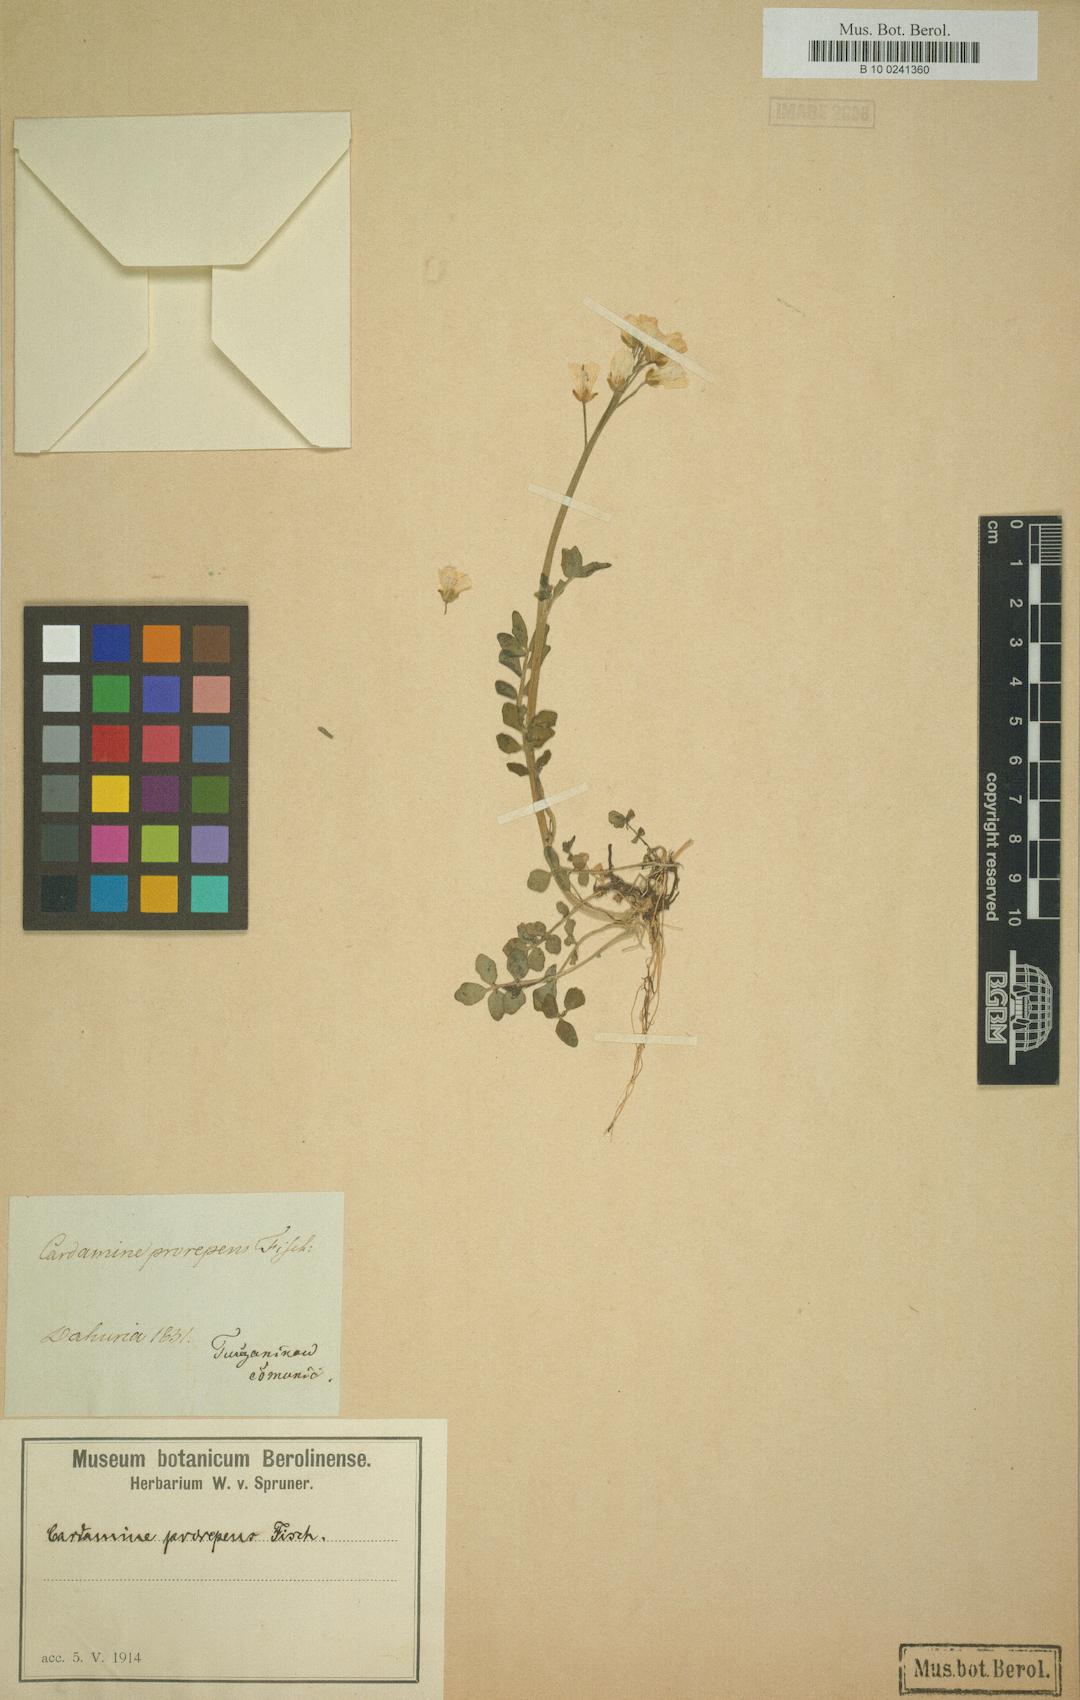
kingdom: Plantae
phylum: Tracheophyta
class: Magnoliopsida
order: Brassicales
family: Brassicaceae
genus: Cardamine
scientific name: Cardamine prorepens
